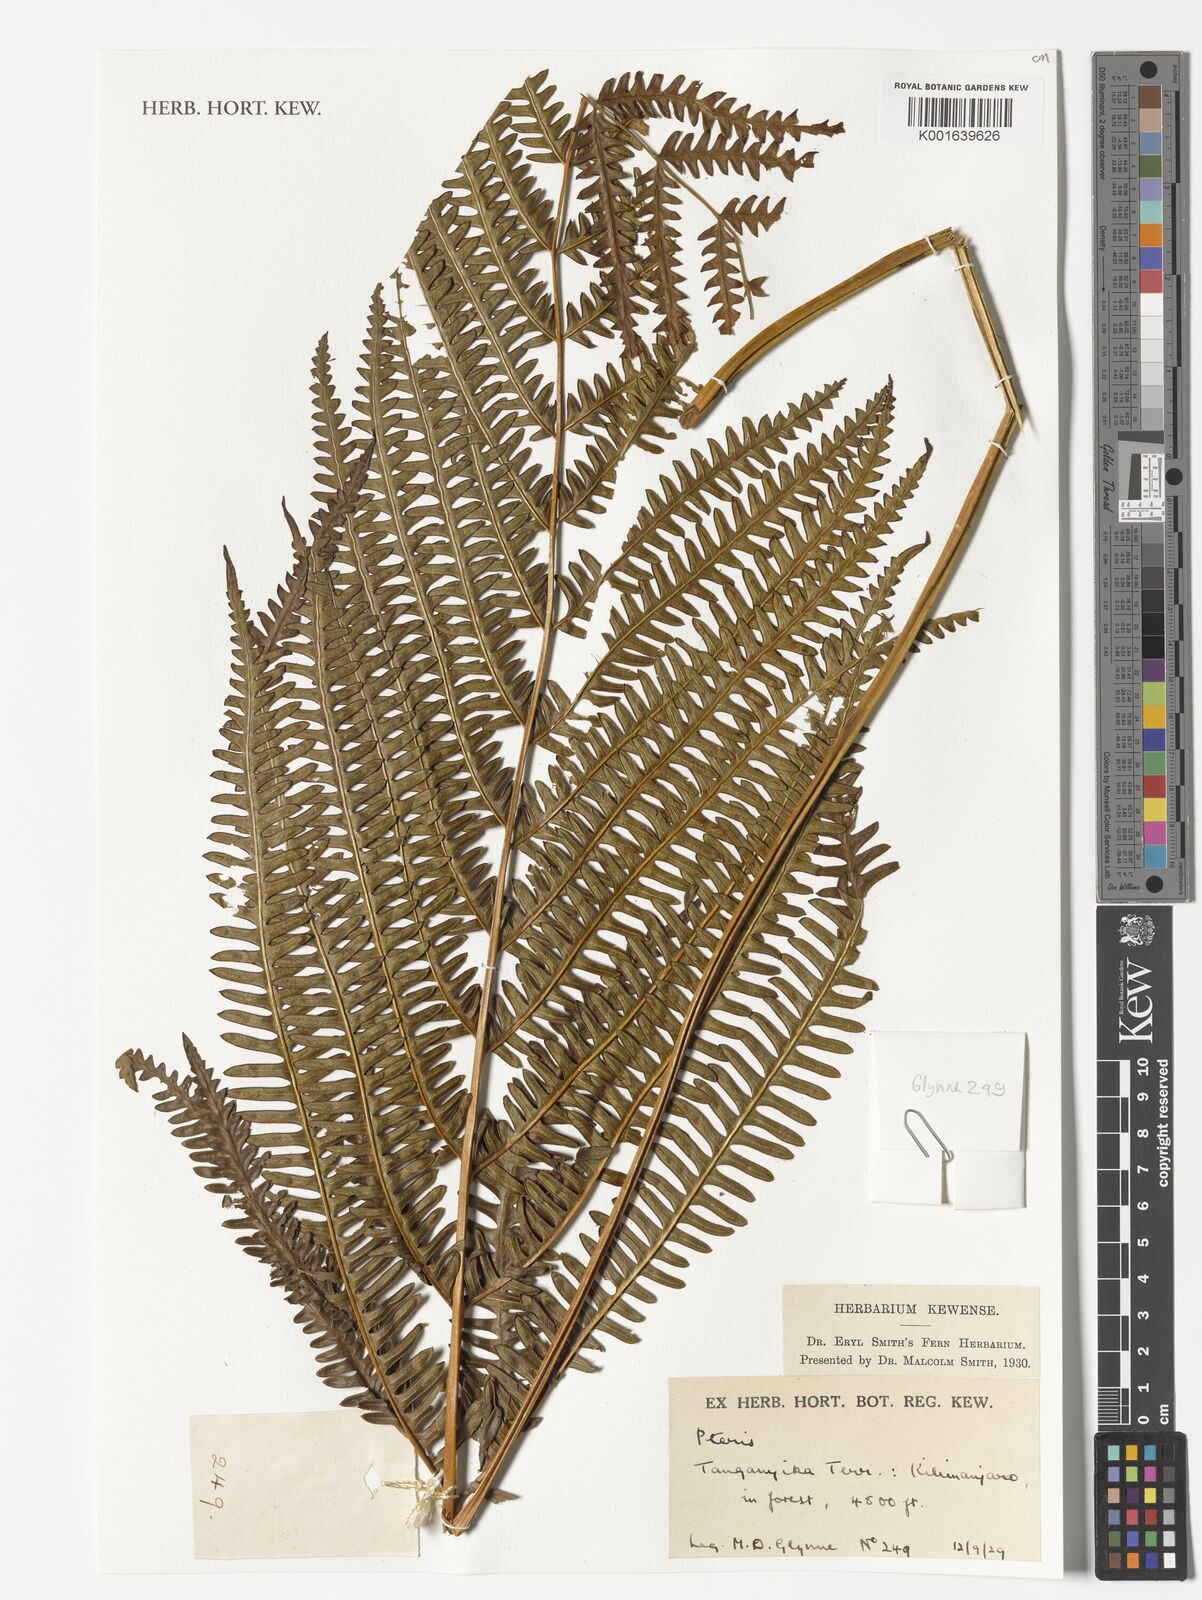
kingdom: Plantae
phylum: Tracheophyta
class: Polypodiopsida
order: Polypodiales
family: Pteridaceae
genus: Pteris
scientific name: Pteris
